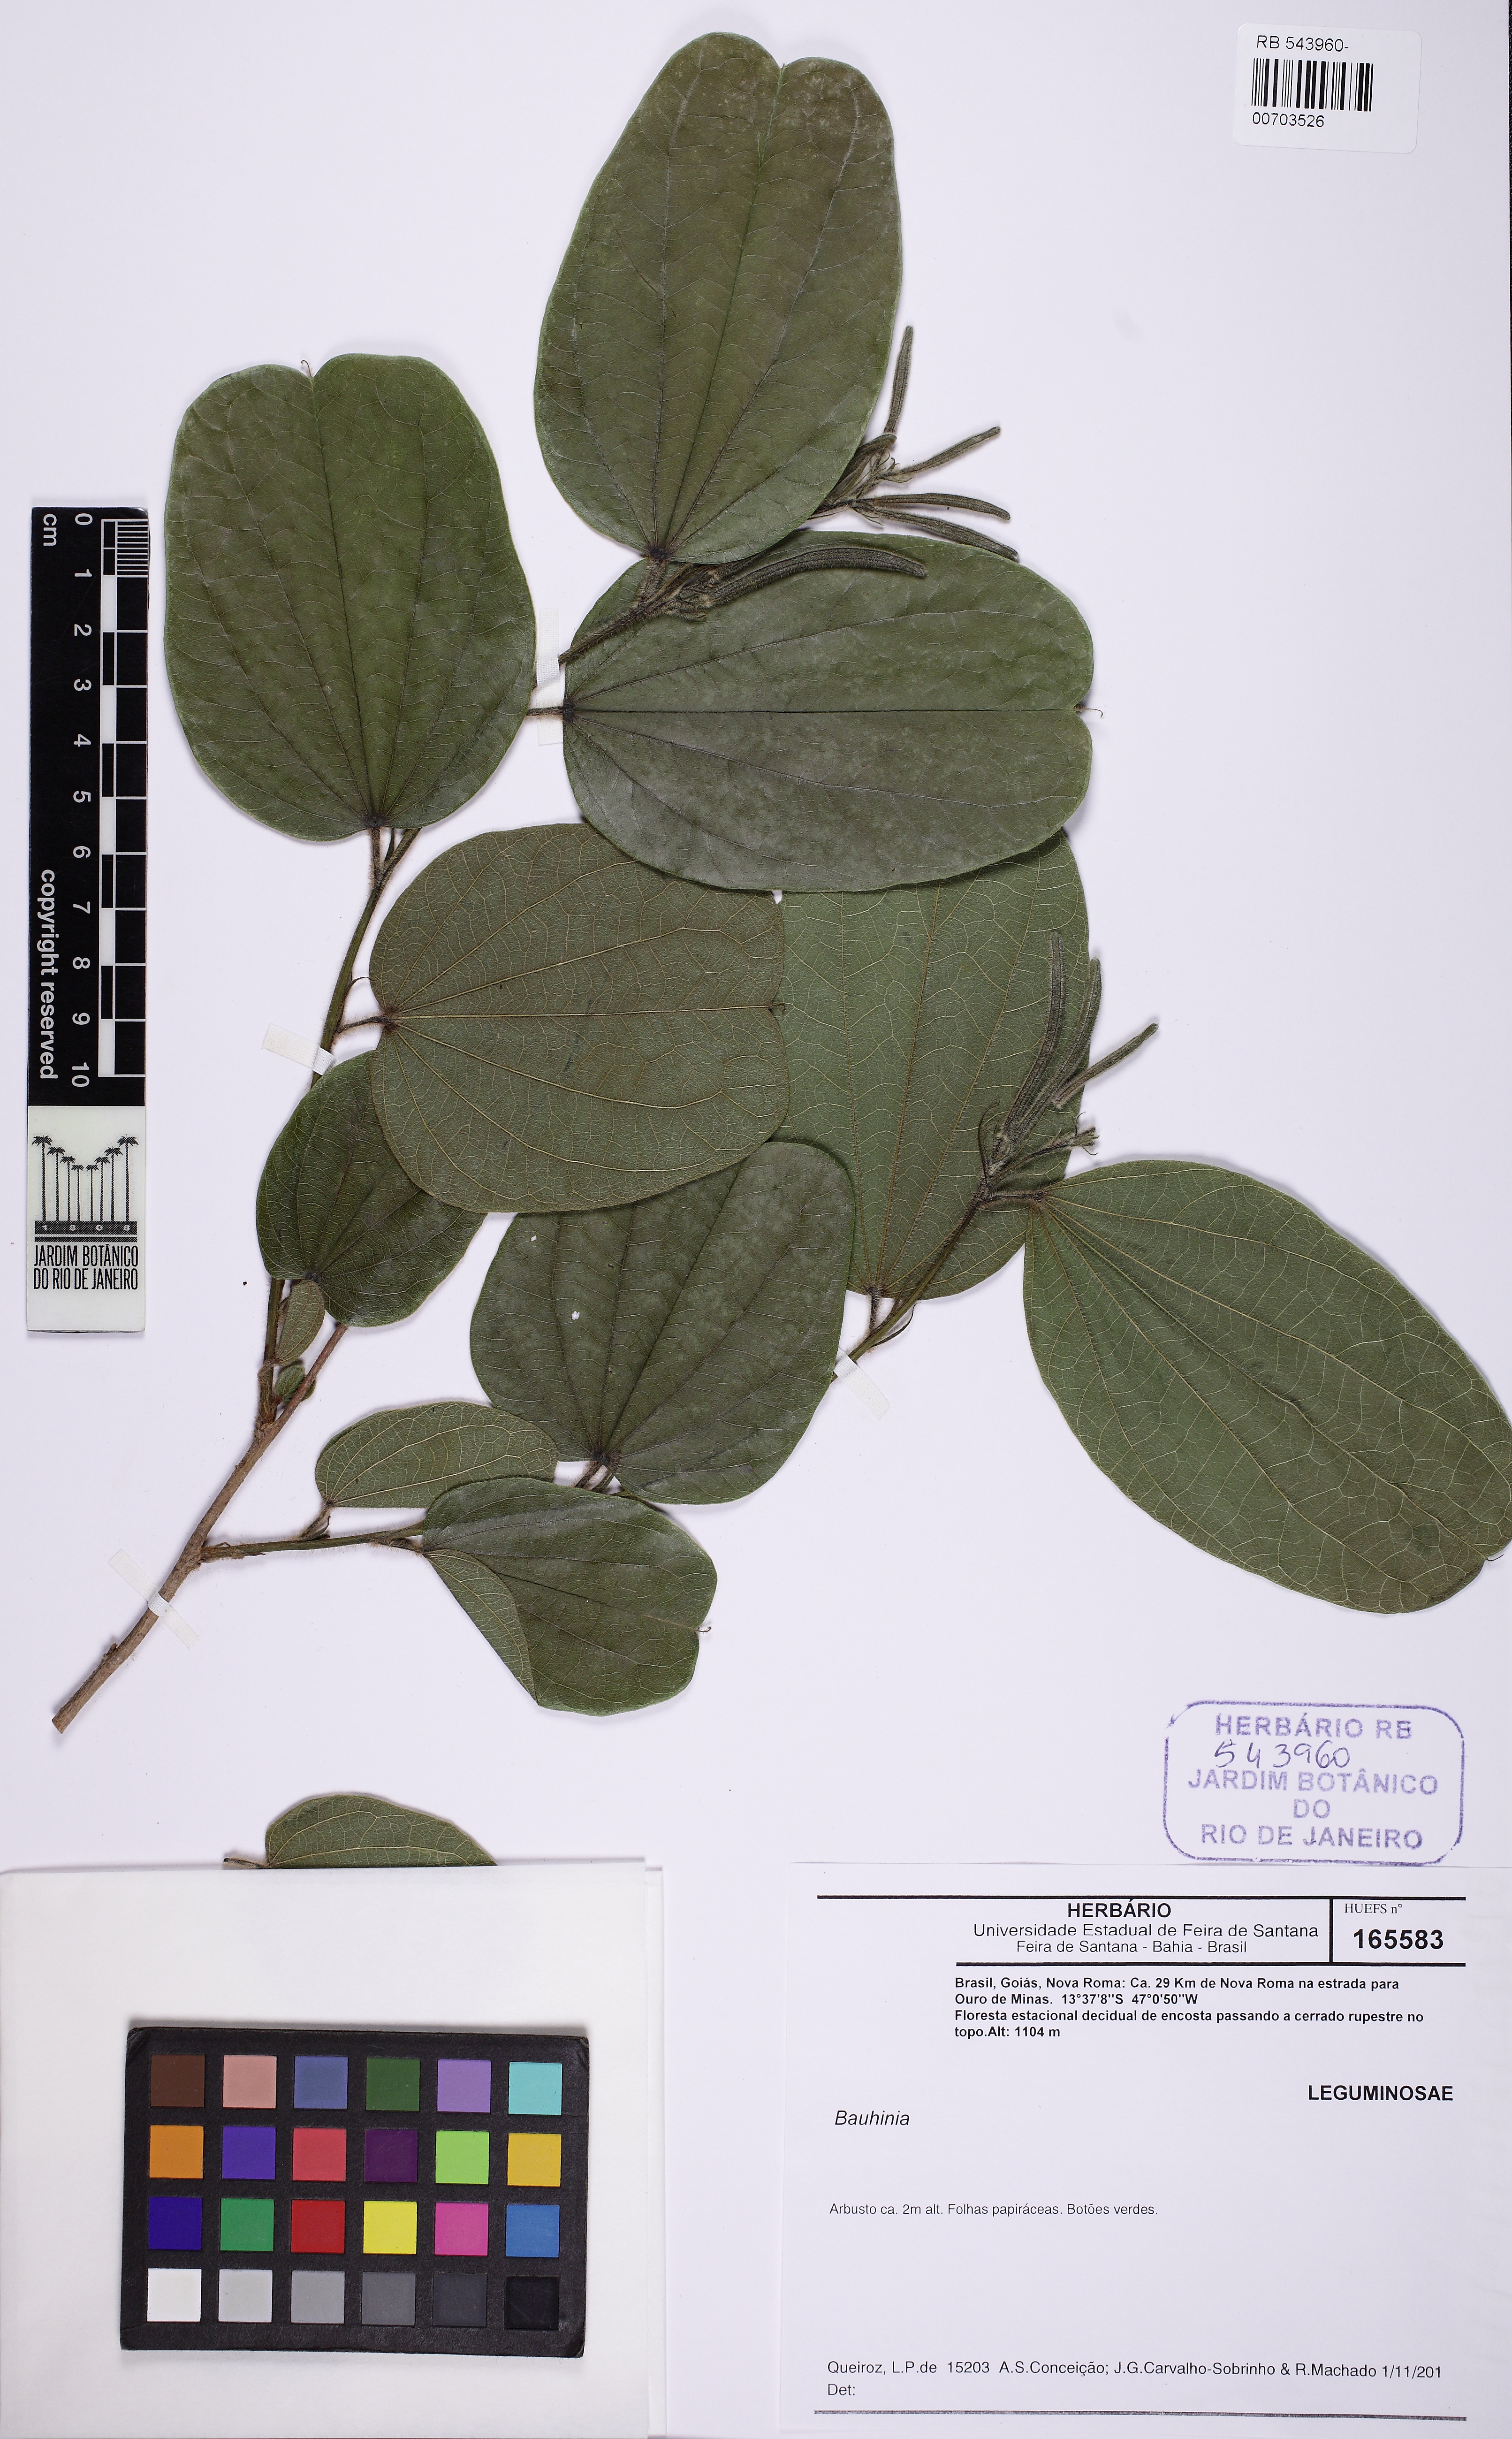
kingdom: Plantae
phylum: Tracheophyta
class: Magnoliopsida
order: Fabales
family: Fabaceae
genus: Bauhinia
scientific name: Bauhinia
